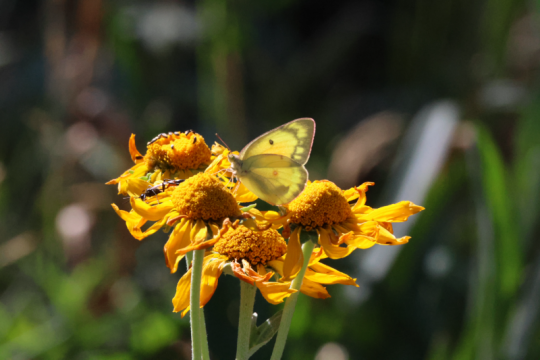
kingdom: Animalia
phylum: Arthropoda
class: Insecta
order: Lepidoptera
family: Pieridae
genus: Colias
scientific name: Colias eurytheme
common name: Orange Sulphur
